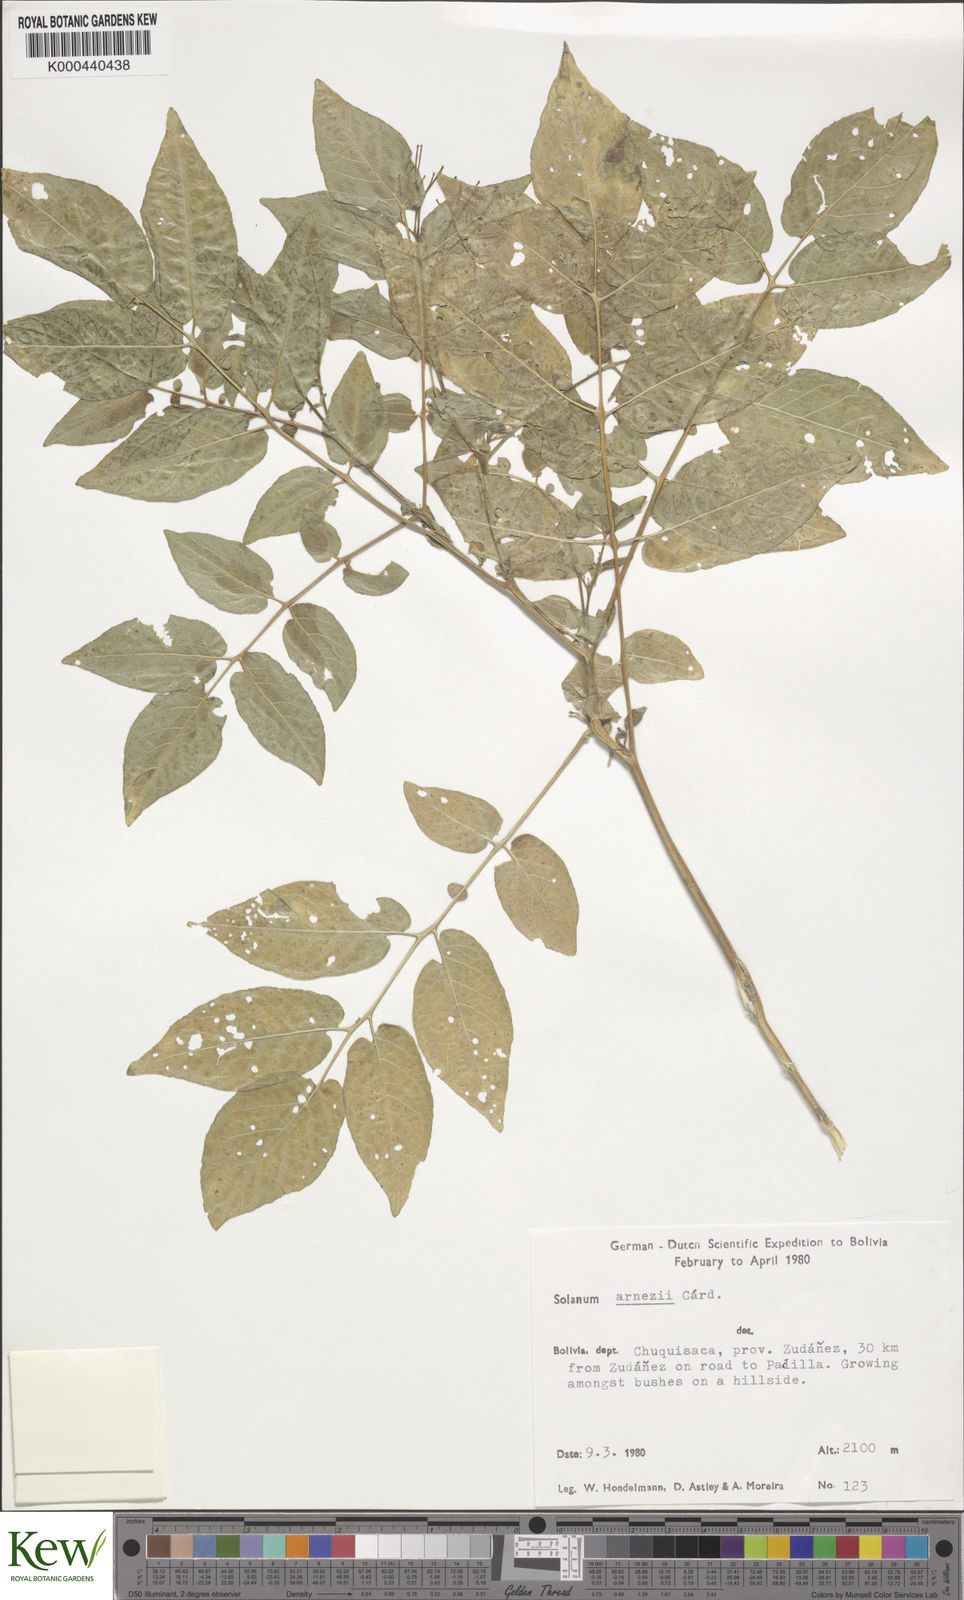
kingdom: Plantae
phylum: Tracheophyta
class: Magnoliopsida
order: Solanales
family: Solanaceae
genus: Solanum
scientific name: Solanum chacoense
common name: Chaco potato
